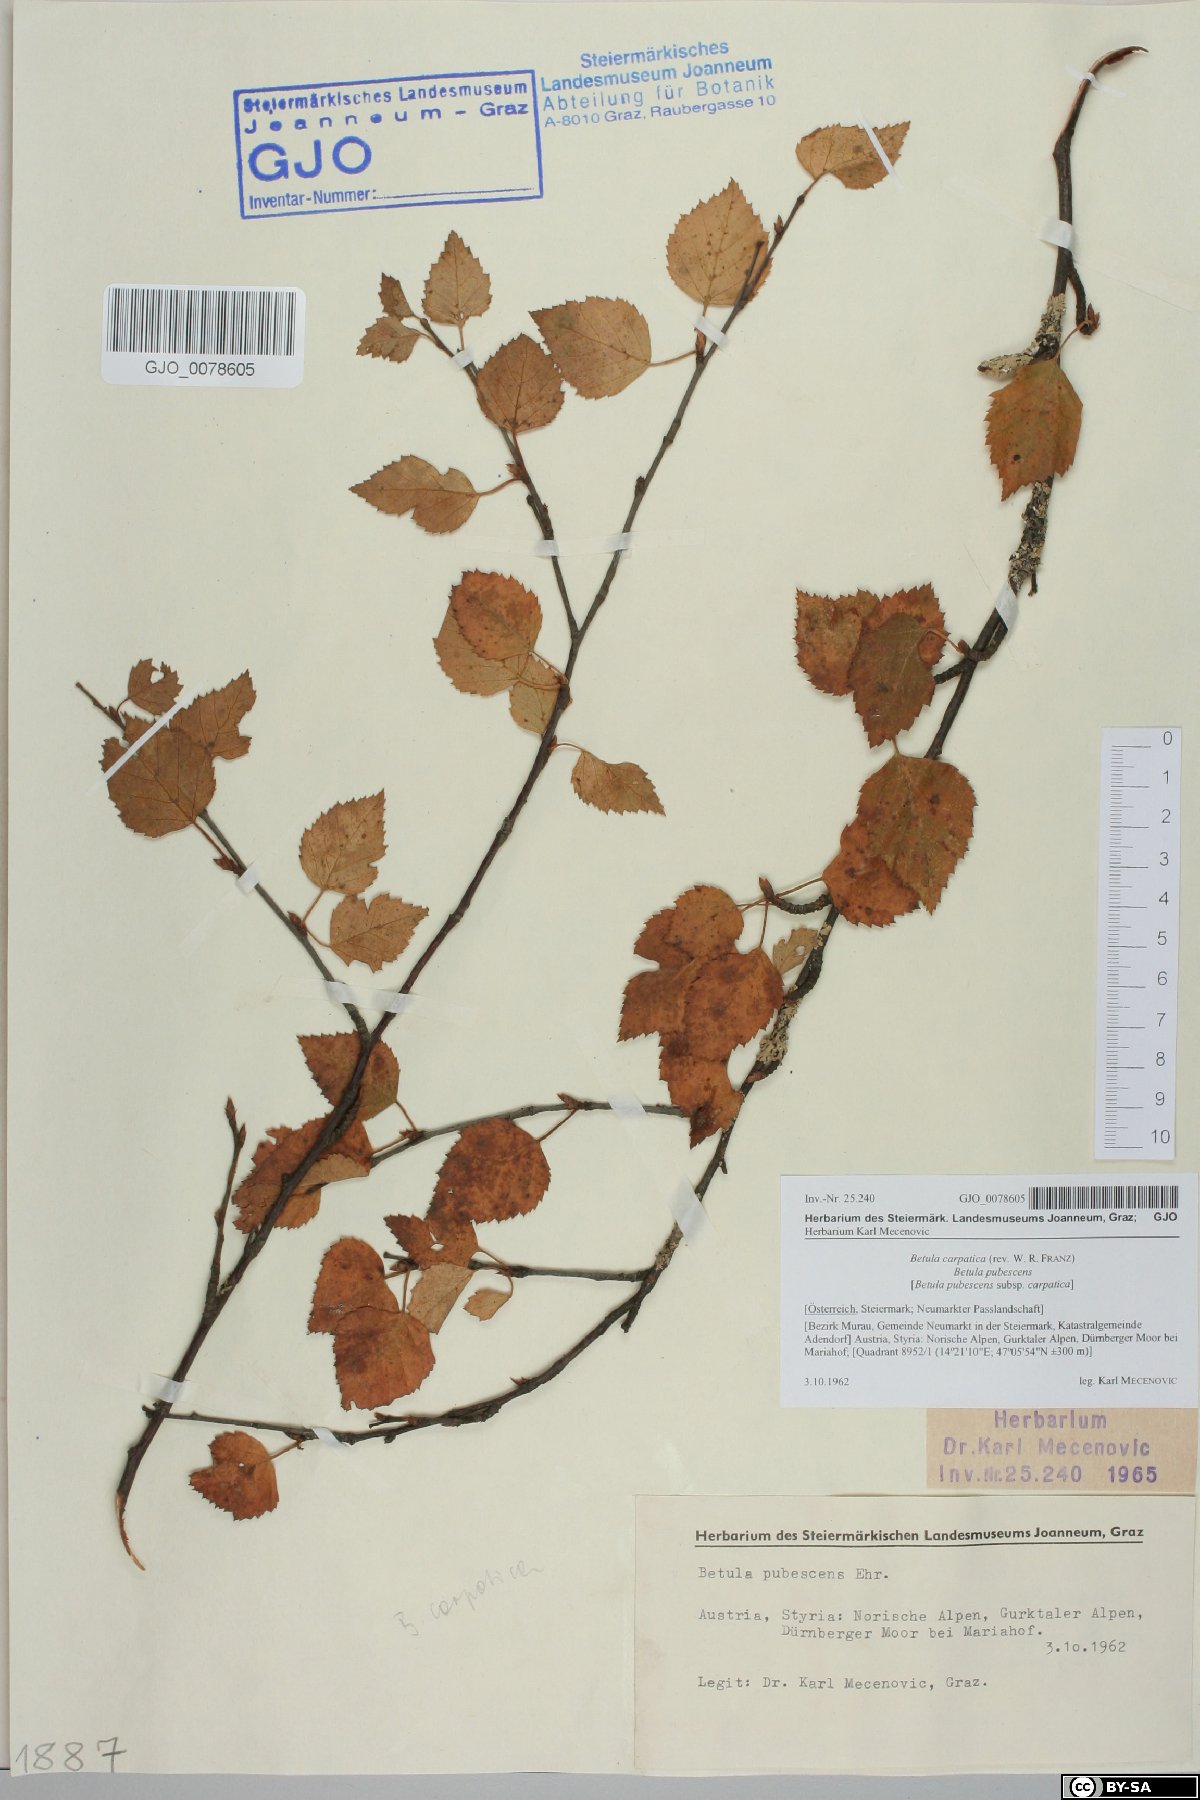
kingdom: Plantae
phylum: Tracheophyta
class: Magnoliopsida
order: Fagales
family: Betulaceae
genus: Betula
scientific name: Betula pubescens
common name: Downy birch
